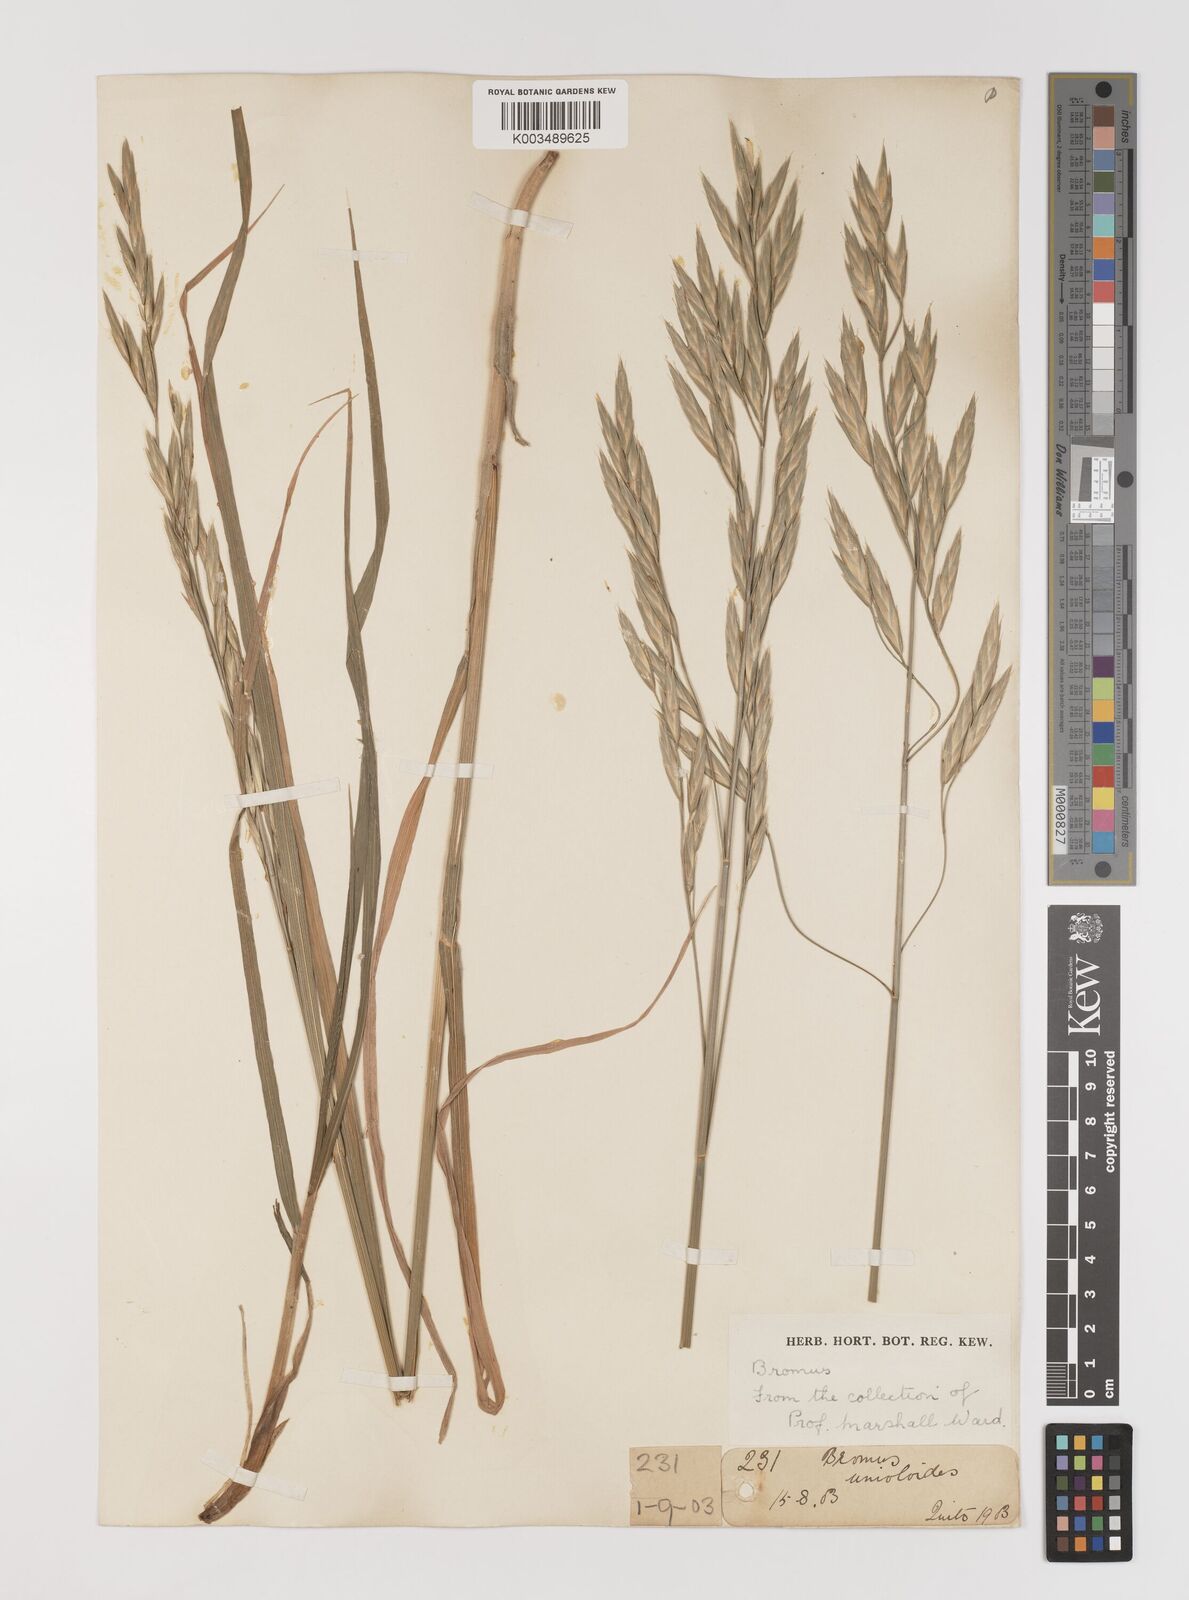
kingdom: Plantae
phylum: Tracheophyta
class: Liliopsida
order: Poales
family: Poaceae
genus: Bromus
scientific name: Bromus catharticus
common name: Rescuegrass
